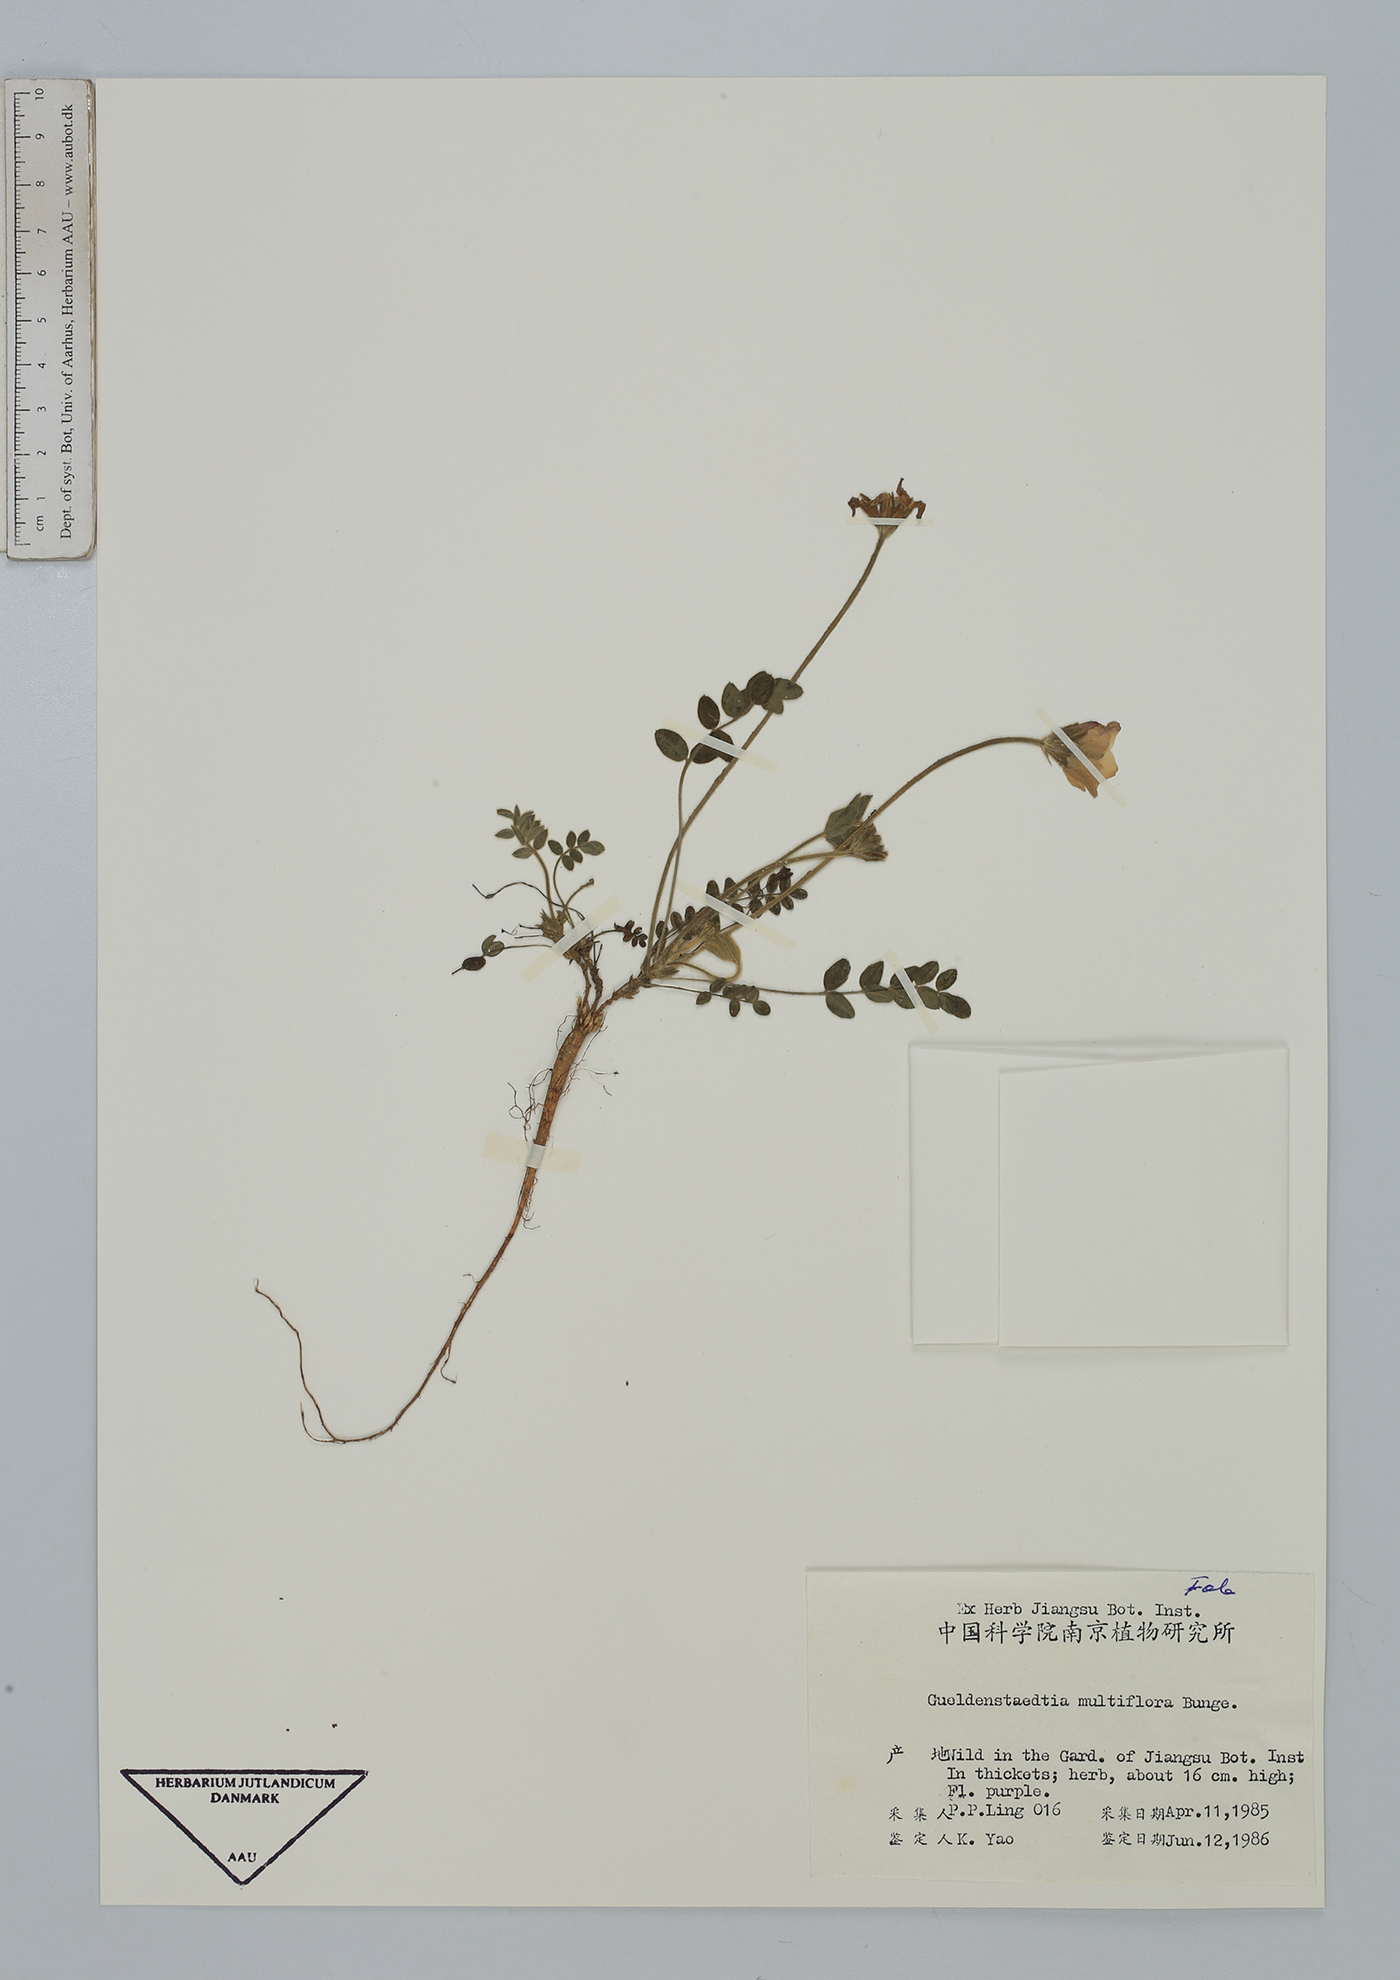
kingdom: Plantae
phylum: Tracheophyta
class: Magnoliopsida
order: Fabales
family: Fabaceae
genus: Gueldenstaedtia
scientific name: Gueldenstaedtia verna
